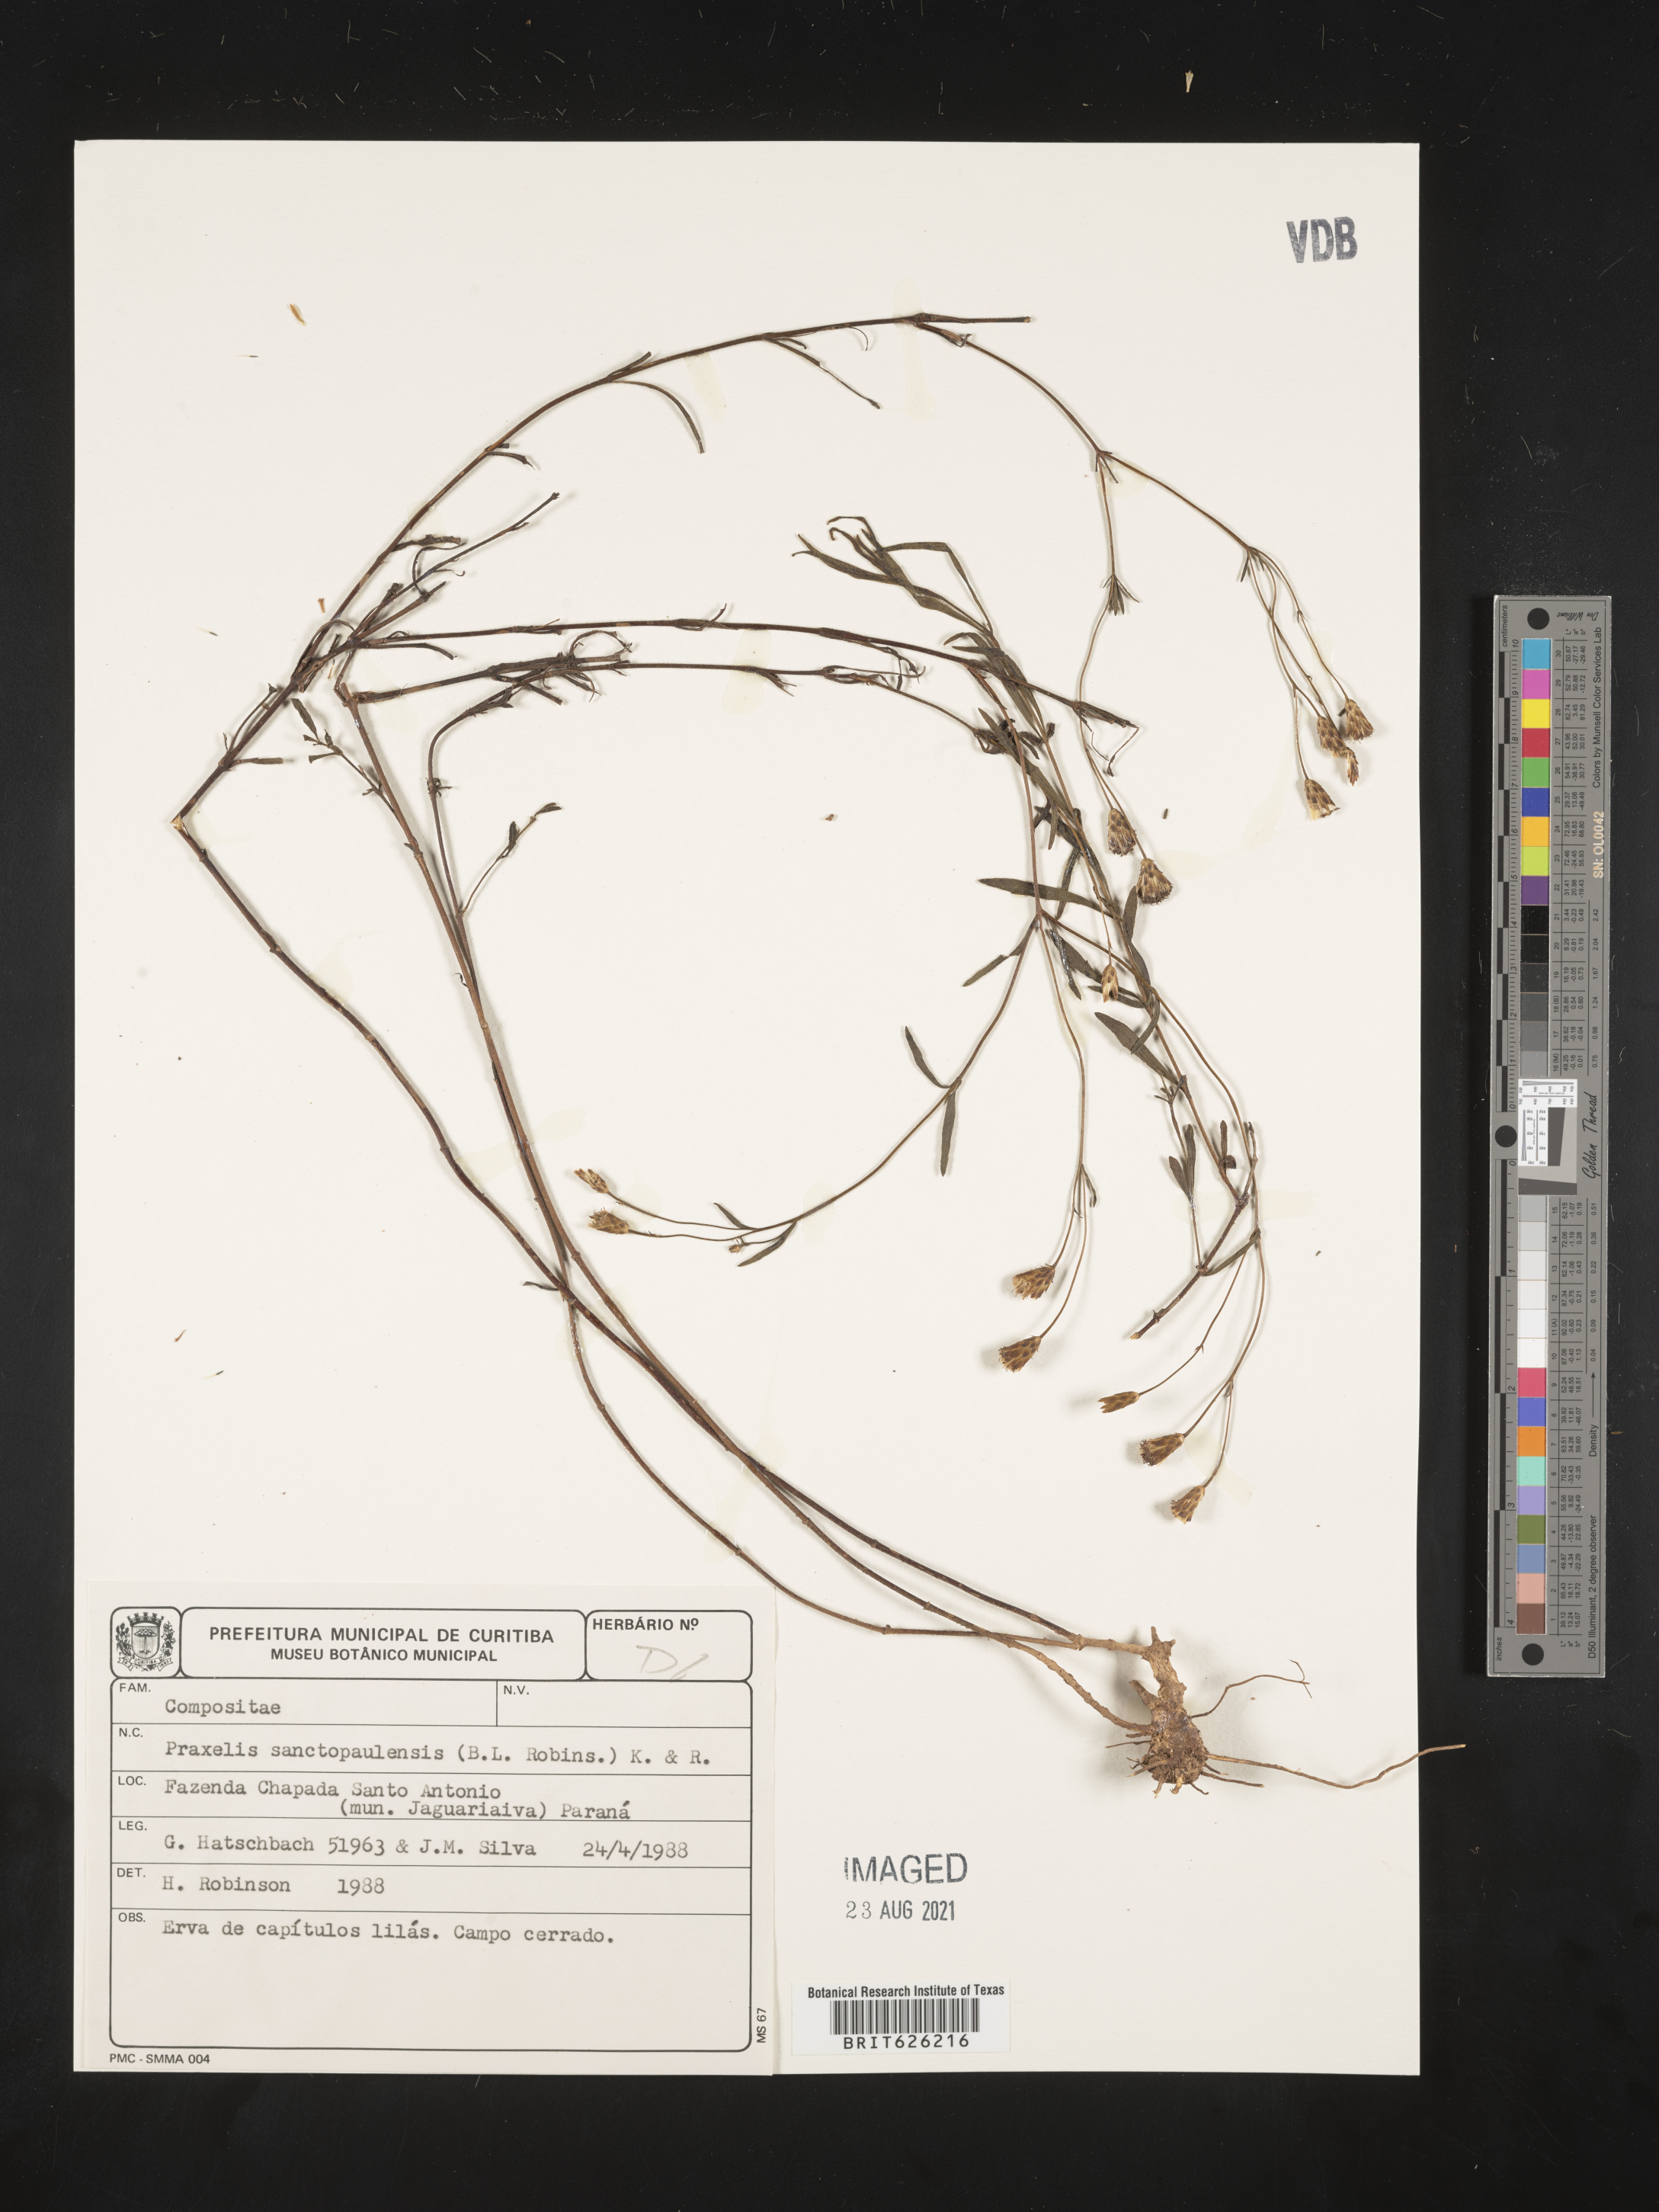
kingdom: Plantae
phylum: Tracheophyta
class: Magnoliopsida
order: Asterales
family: Asteraceae
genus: Praxelis
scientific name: Praxelis sanctopaulensis
